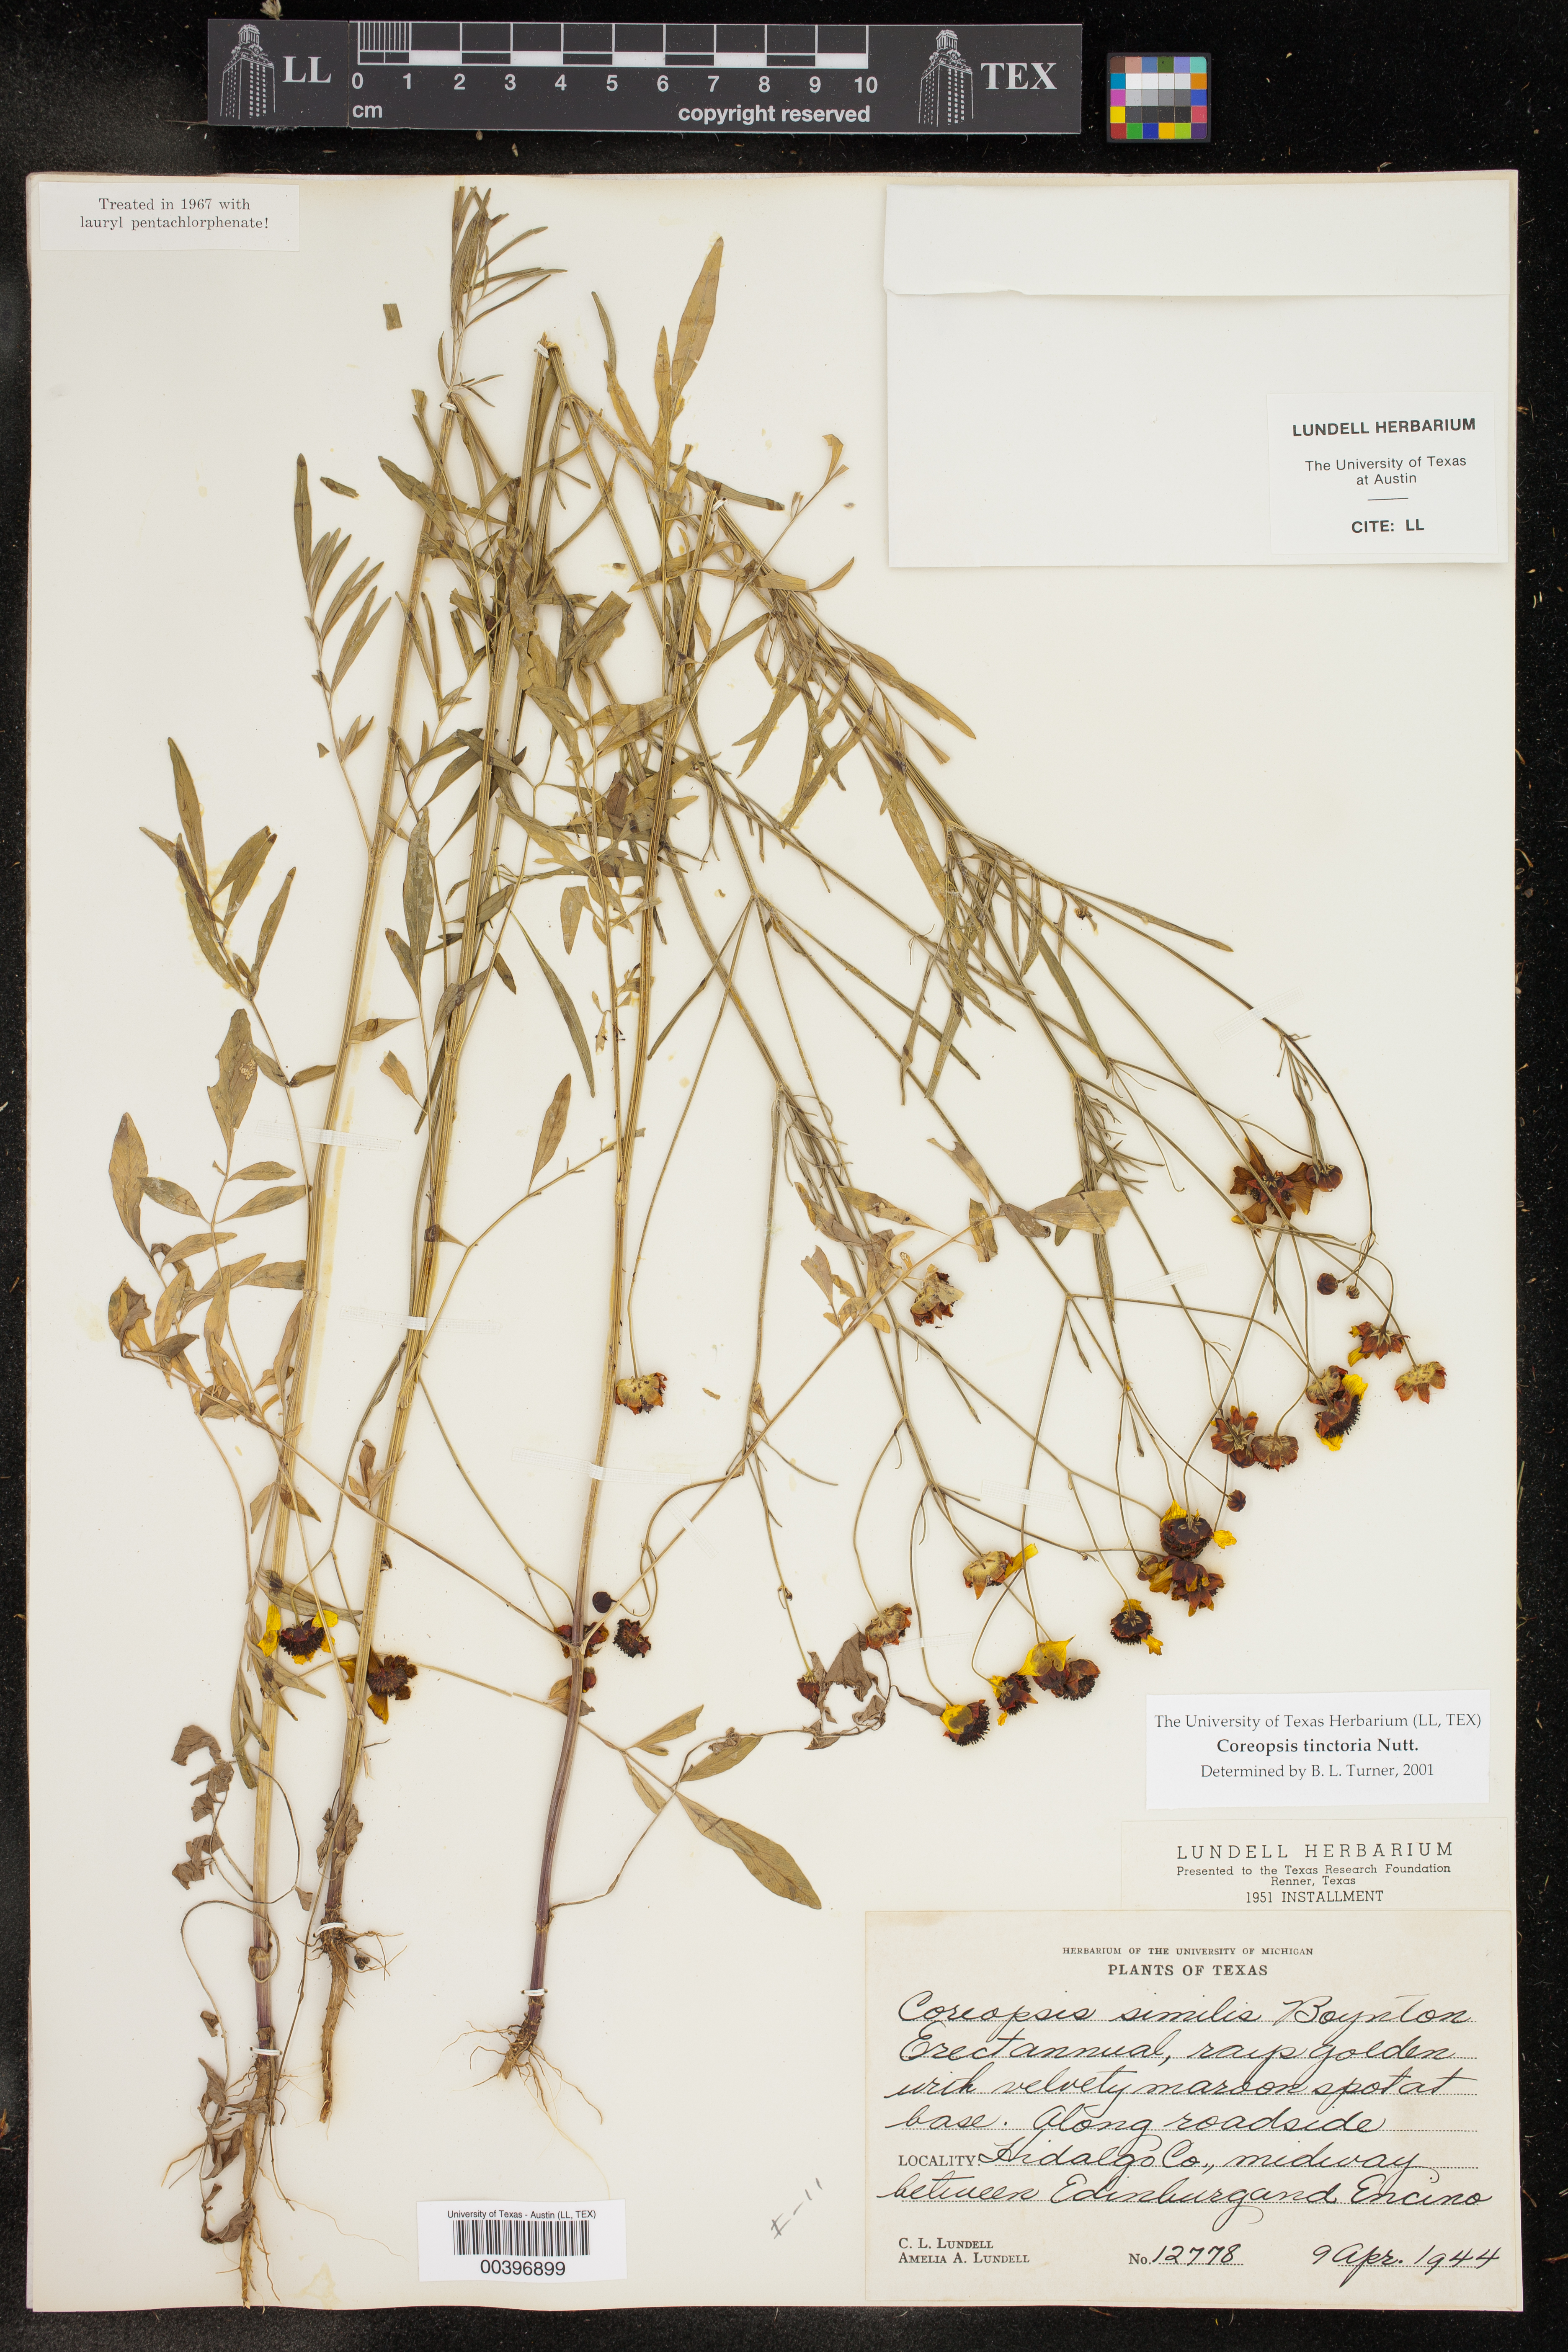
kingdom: Plantae
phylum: Tracheophyta
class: Magnoliopsida
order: Asterales
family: Asteraceae
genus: Coreopsis
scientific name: Coreopsis tinctoria
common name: Garden tickseed
